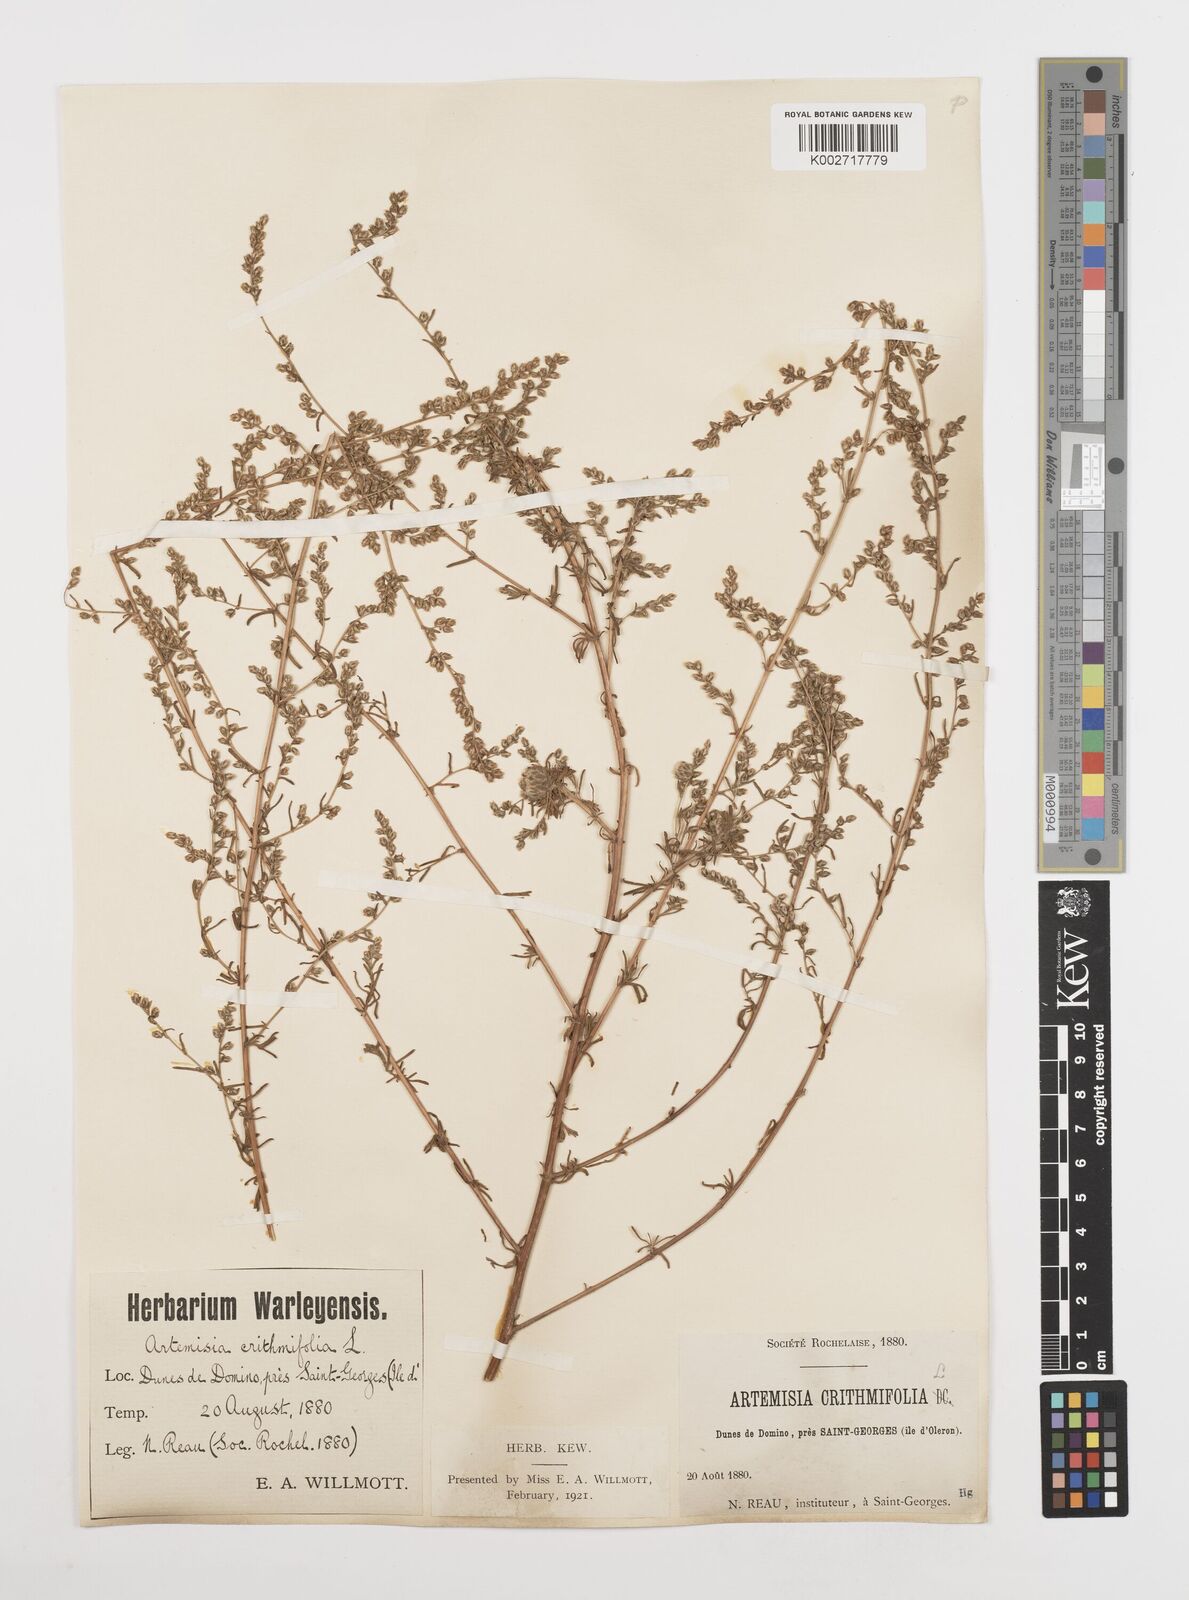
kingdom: Plantae
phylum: Tracheophyta
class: Magnoliopsida
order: Asterales
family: Asteraceae
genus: Artemisia
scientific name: Artemisia campestris
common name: Field wormwood
